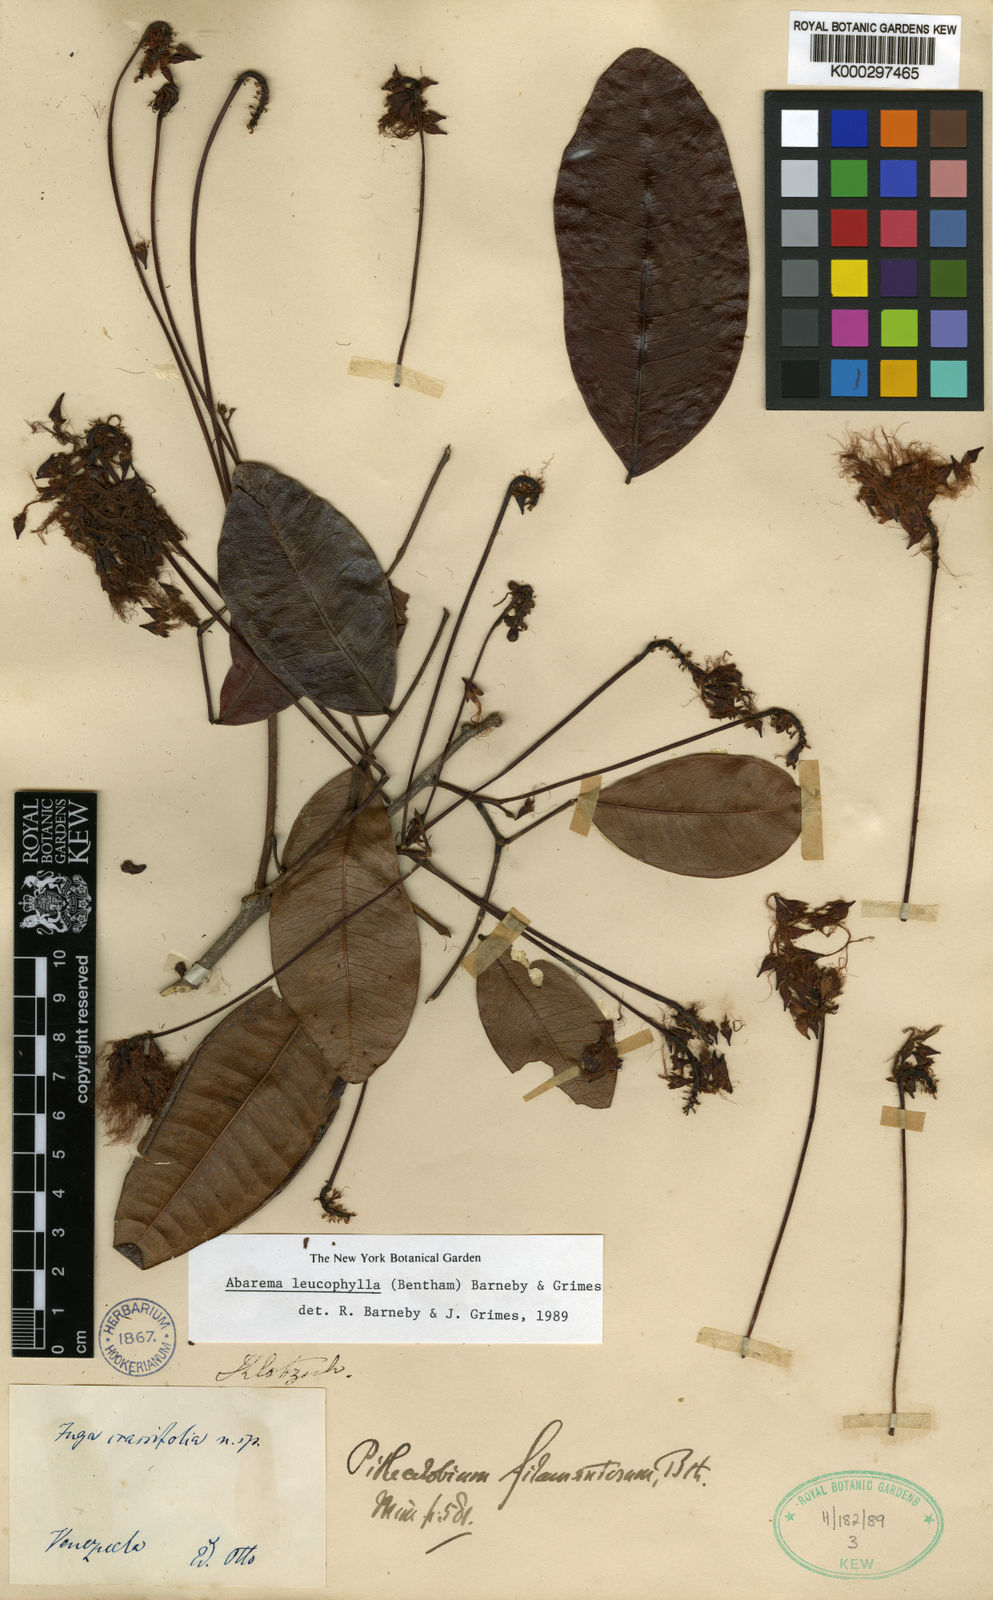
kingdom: Plantae
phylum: Tracheophyta
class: Magnoliopsida
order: Fabales
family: Fabaceae
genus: Jupunba
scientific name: Jupunba leucophylla
